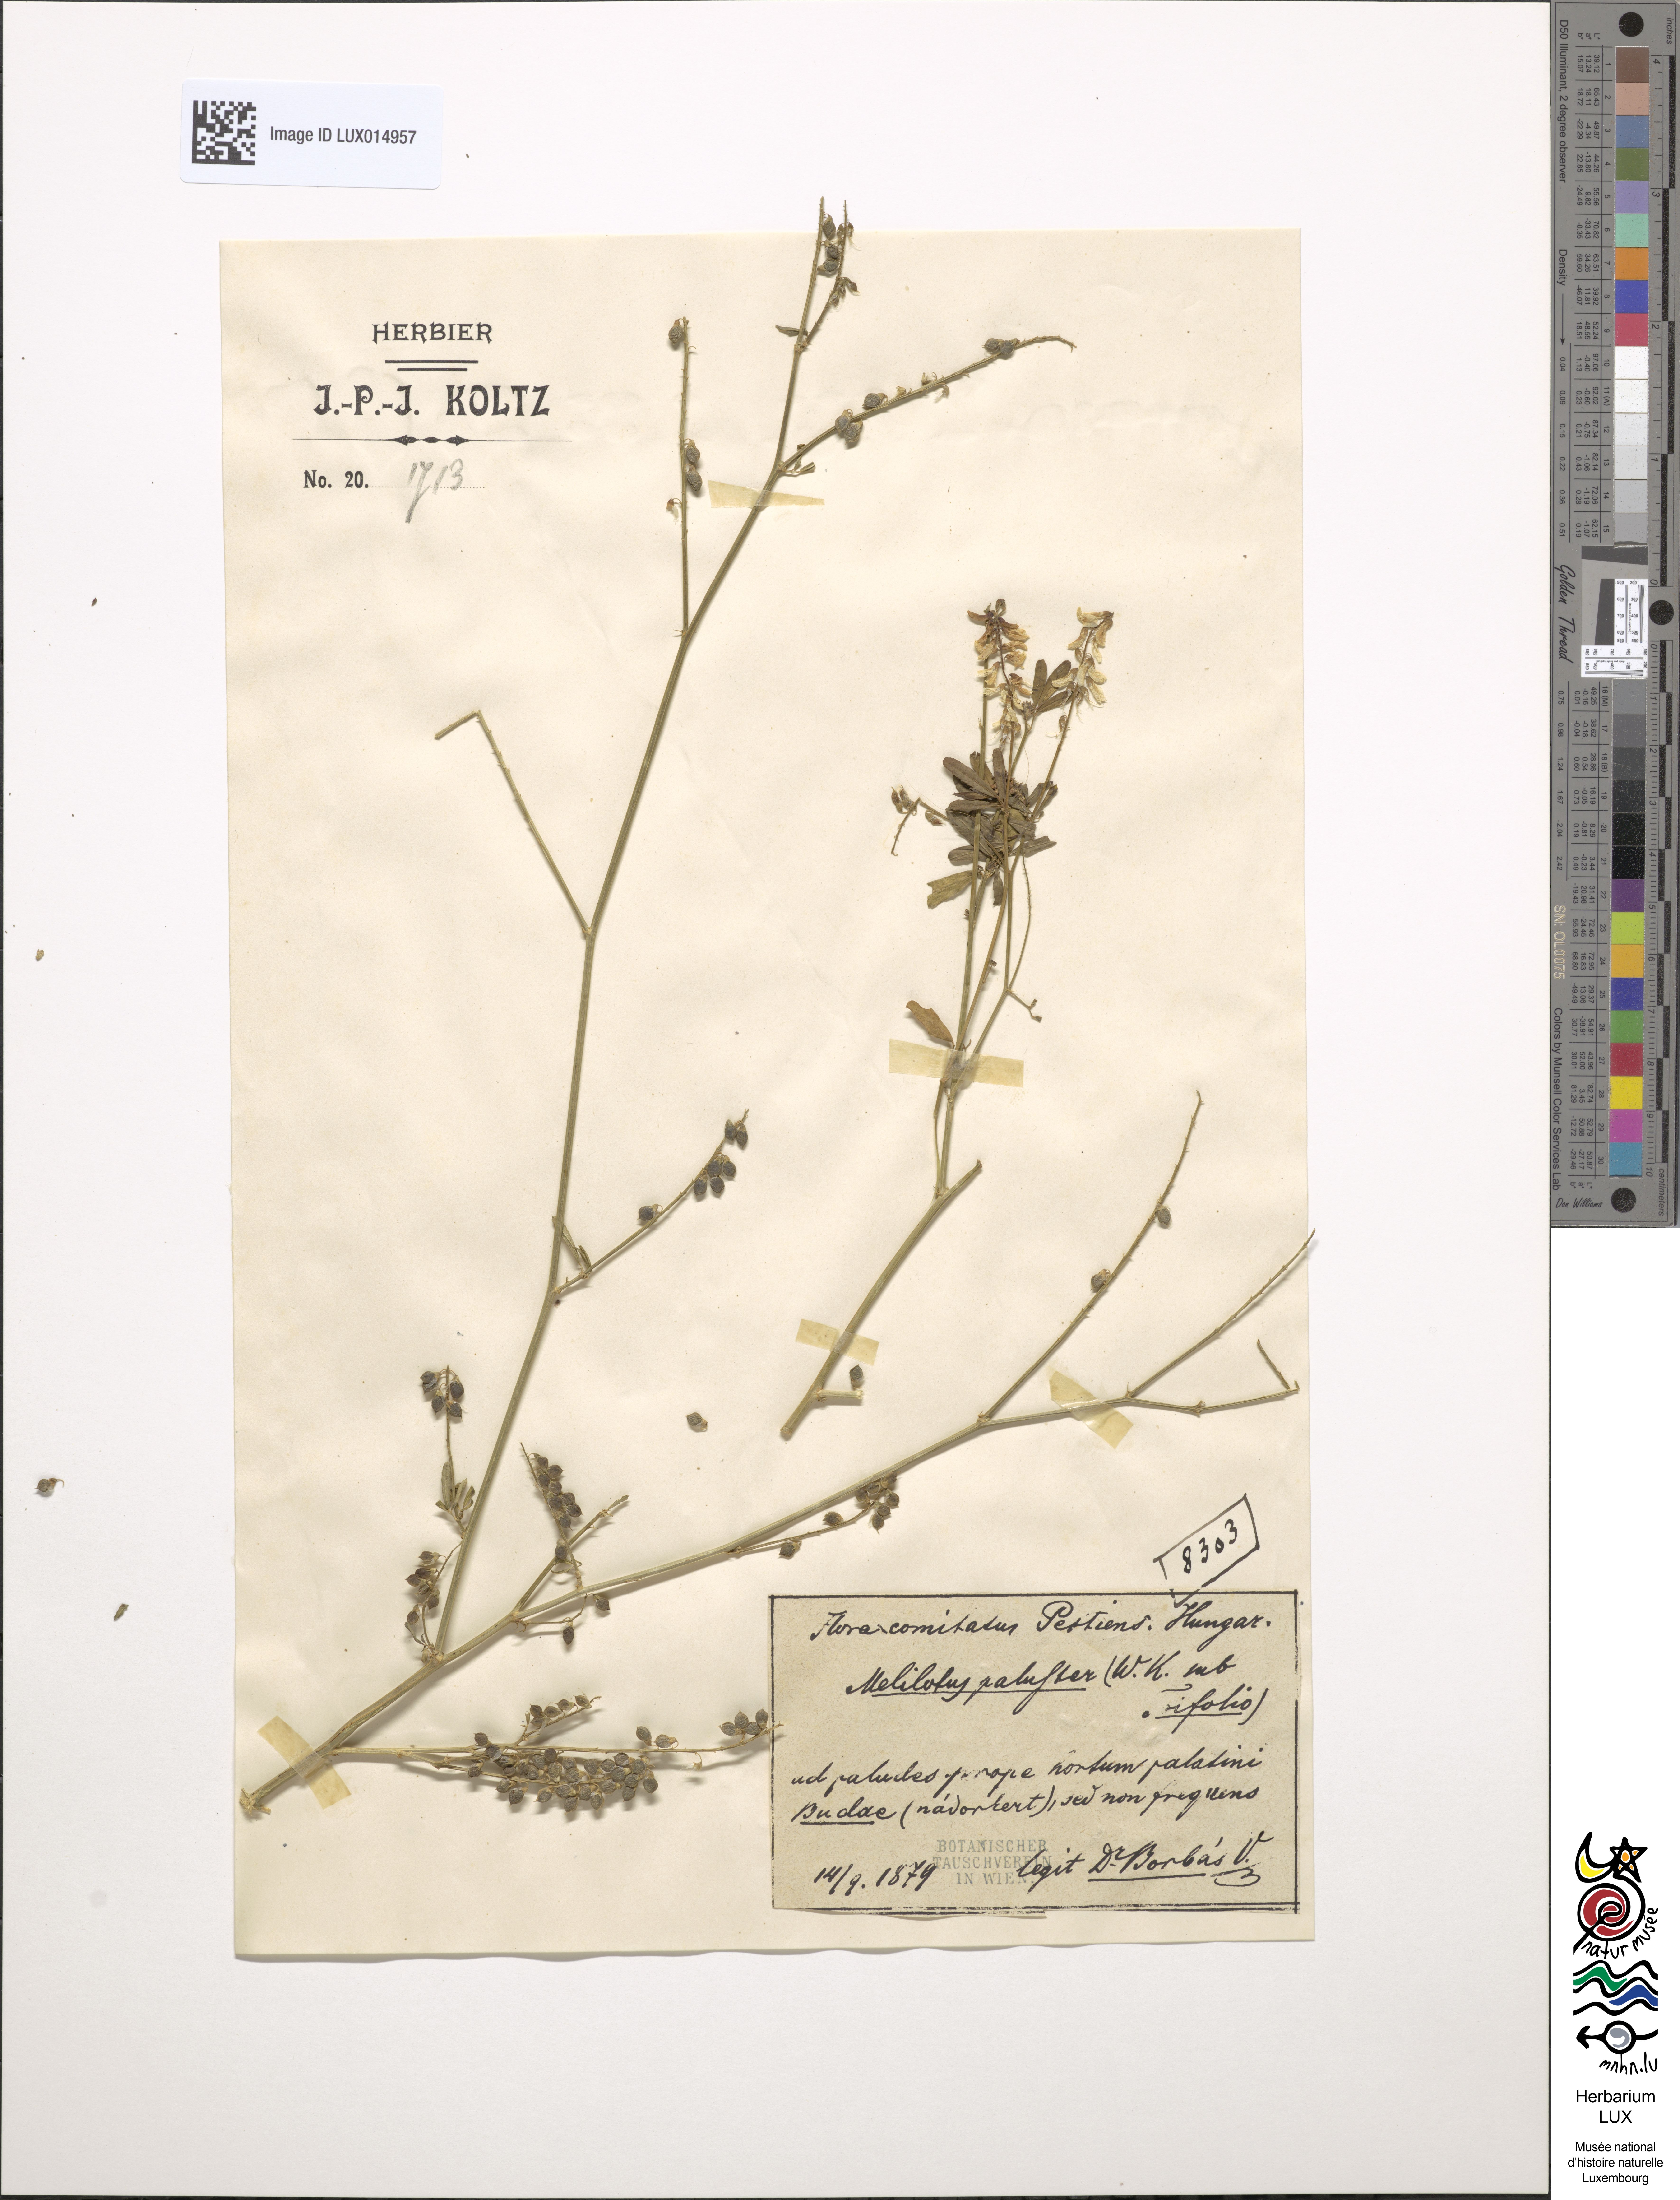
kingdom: Plantae
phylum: Tracheophyta
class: Magnoliopsida
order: Fabales
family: Fabaceae
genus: Melilotus
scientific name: Melilotus altissimus
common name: Tall melilot
